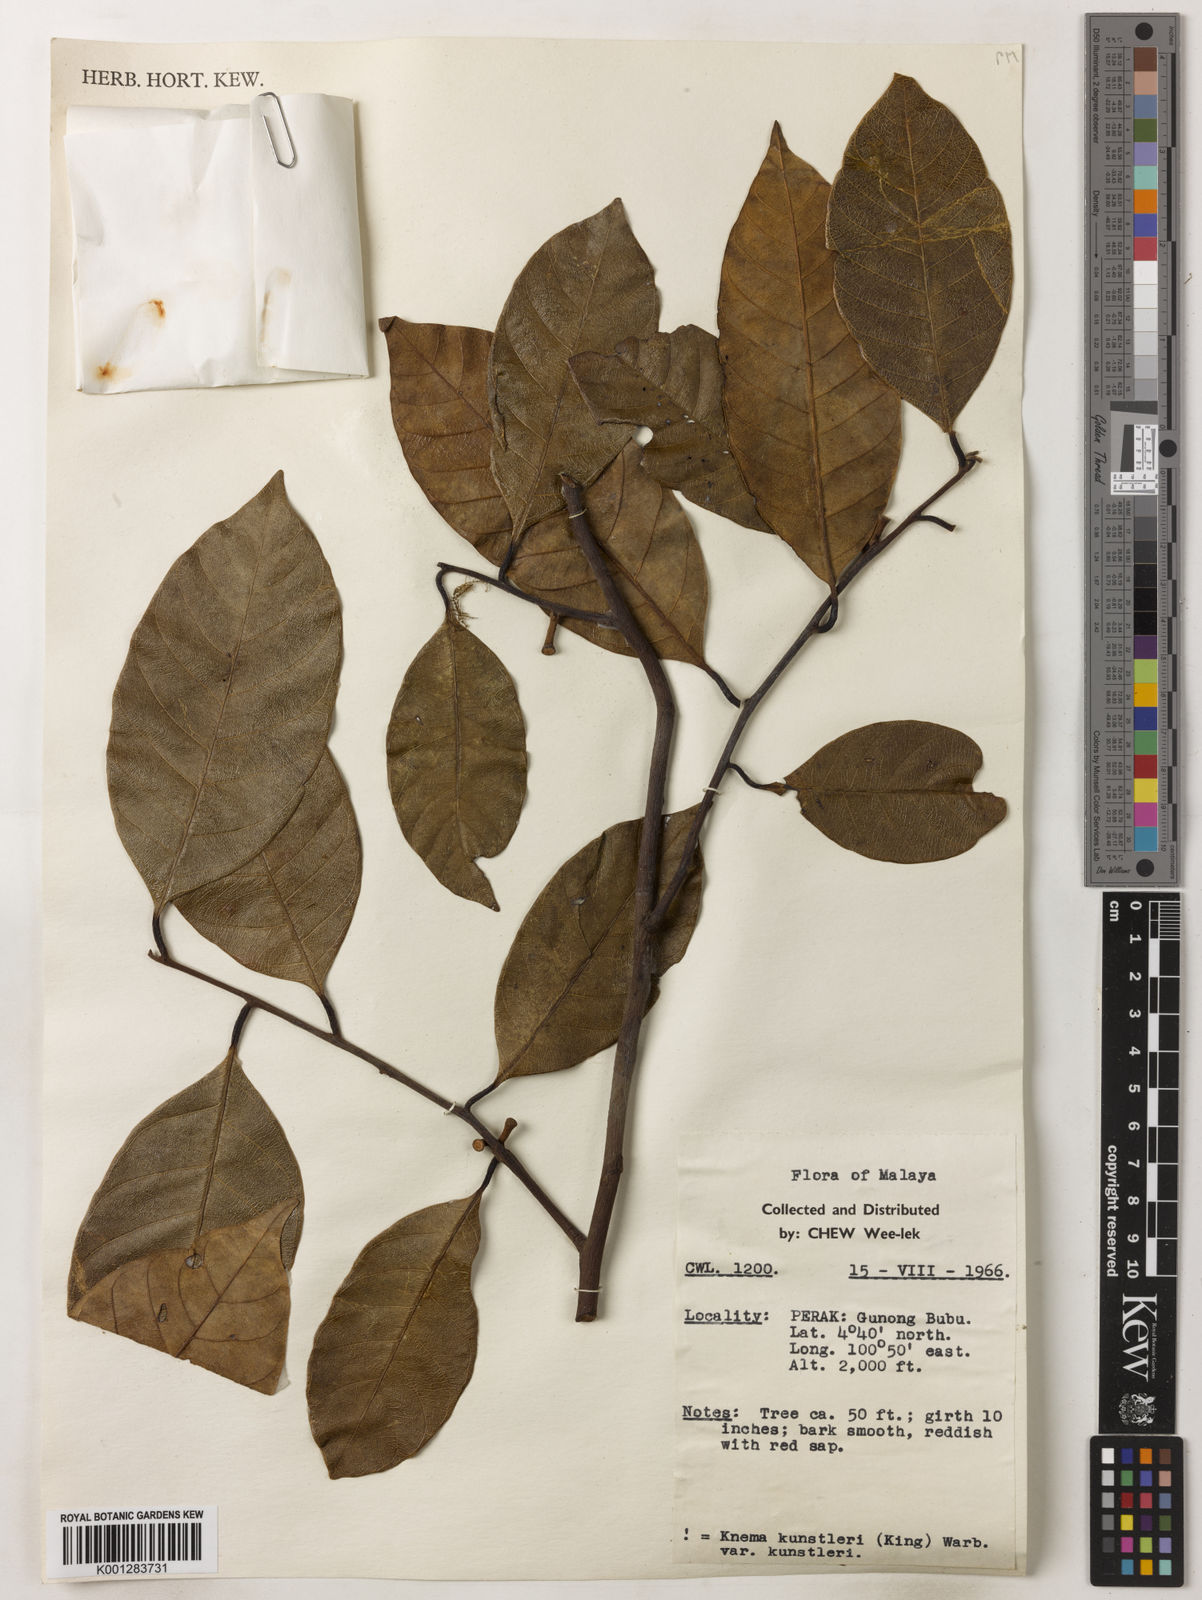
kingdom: Plantae
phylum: Tracheophyta
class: Magnoliopsida
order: Magnoliales
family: Myristicaceae
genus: Knema
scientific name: Knema kunstleri
